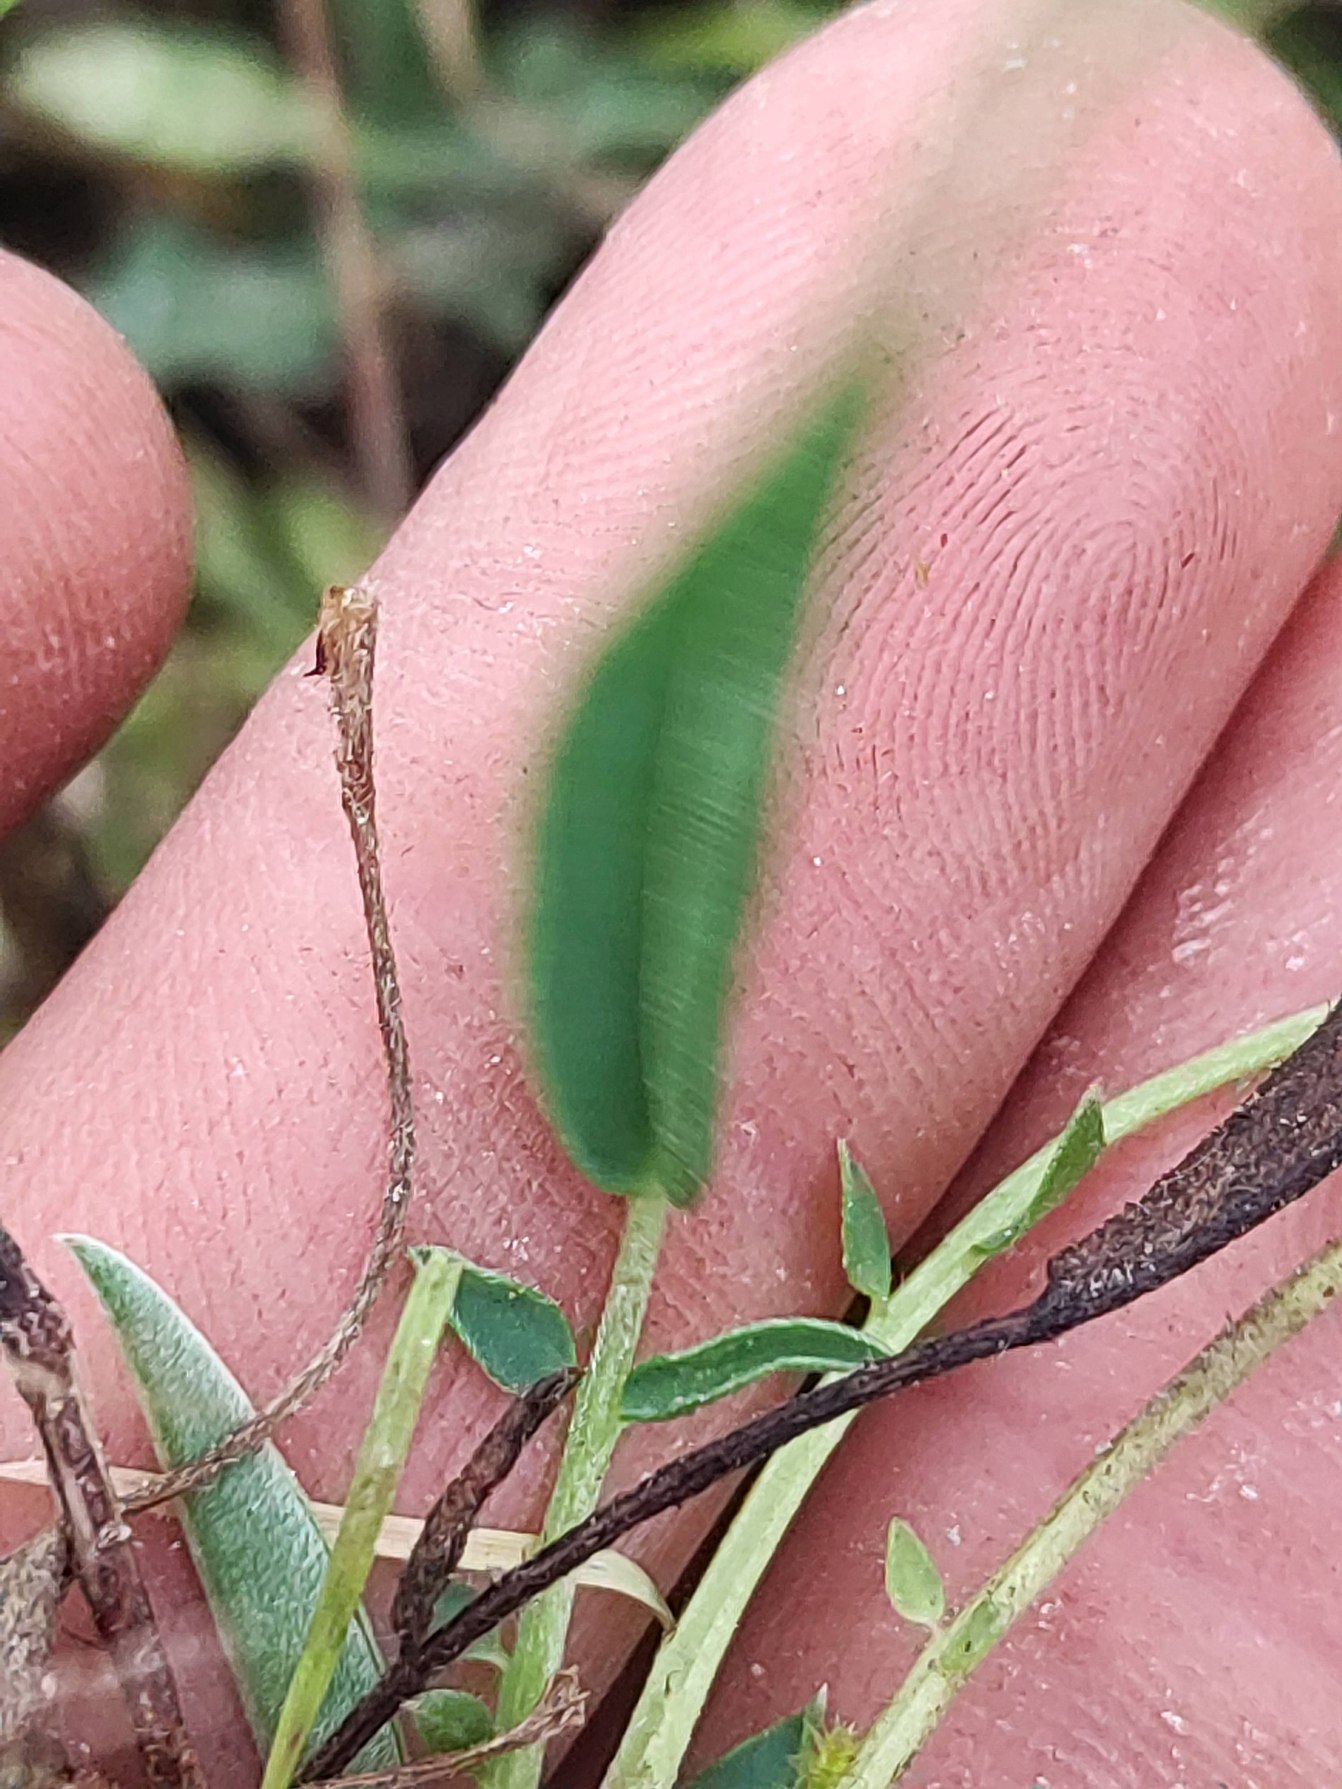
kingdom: Plantae
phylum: Tracheophyta
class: Magnoliopsida
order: Fabales
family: Fabaceae
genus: Anthyllis
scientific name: Anthyllis vulneraria
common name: Rundbælg
